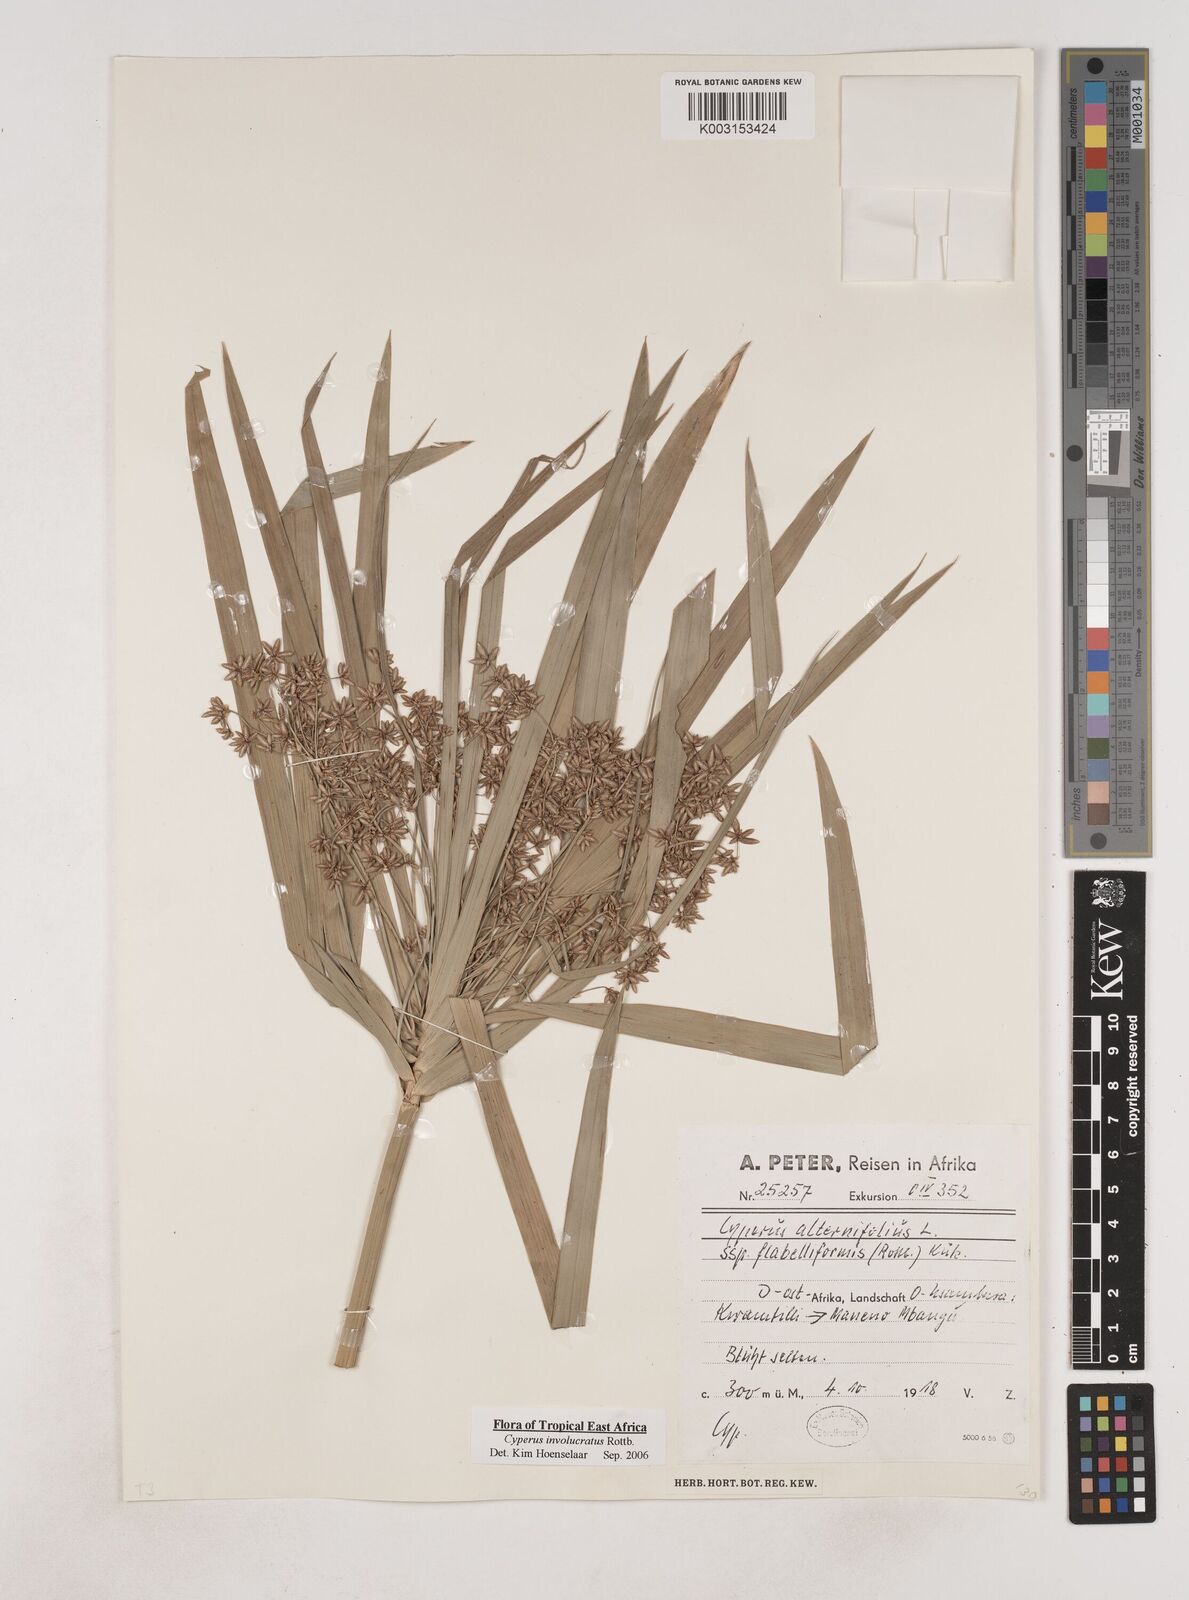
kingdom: Plantae
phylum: Tracheophyta
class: Liliopsida
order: Poales
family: Cyperaceae
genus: Cyperus
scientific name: Cyperus alternifolius
